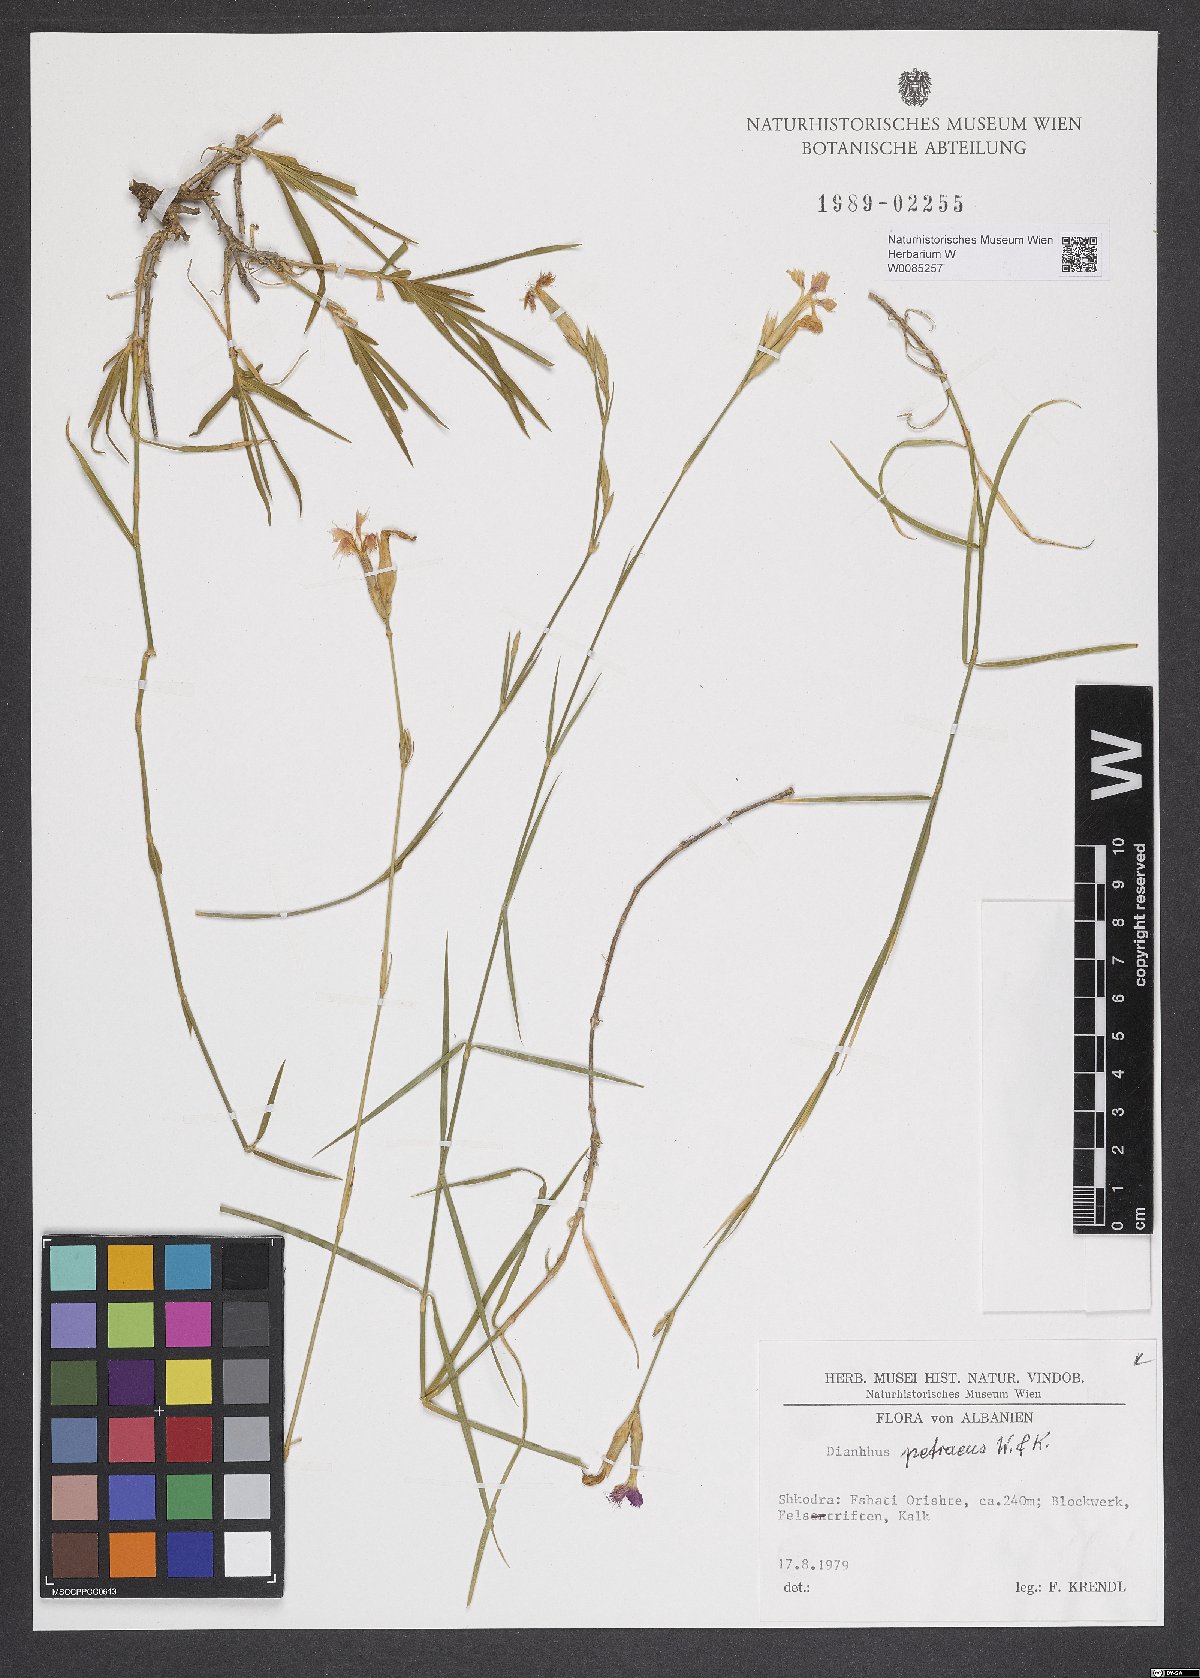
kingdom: Plantae
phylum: Tracheophyta
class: Magnoliopsida
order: Caryophyllales
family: Caryophyllaceae
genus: Dianthus
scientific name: Dianthus petraeus
